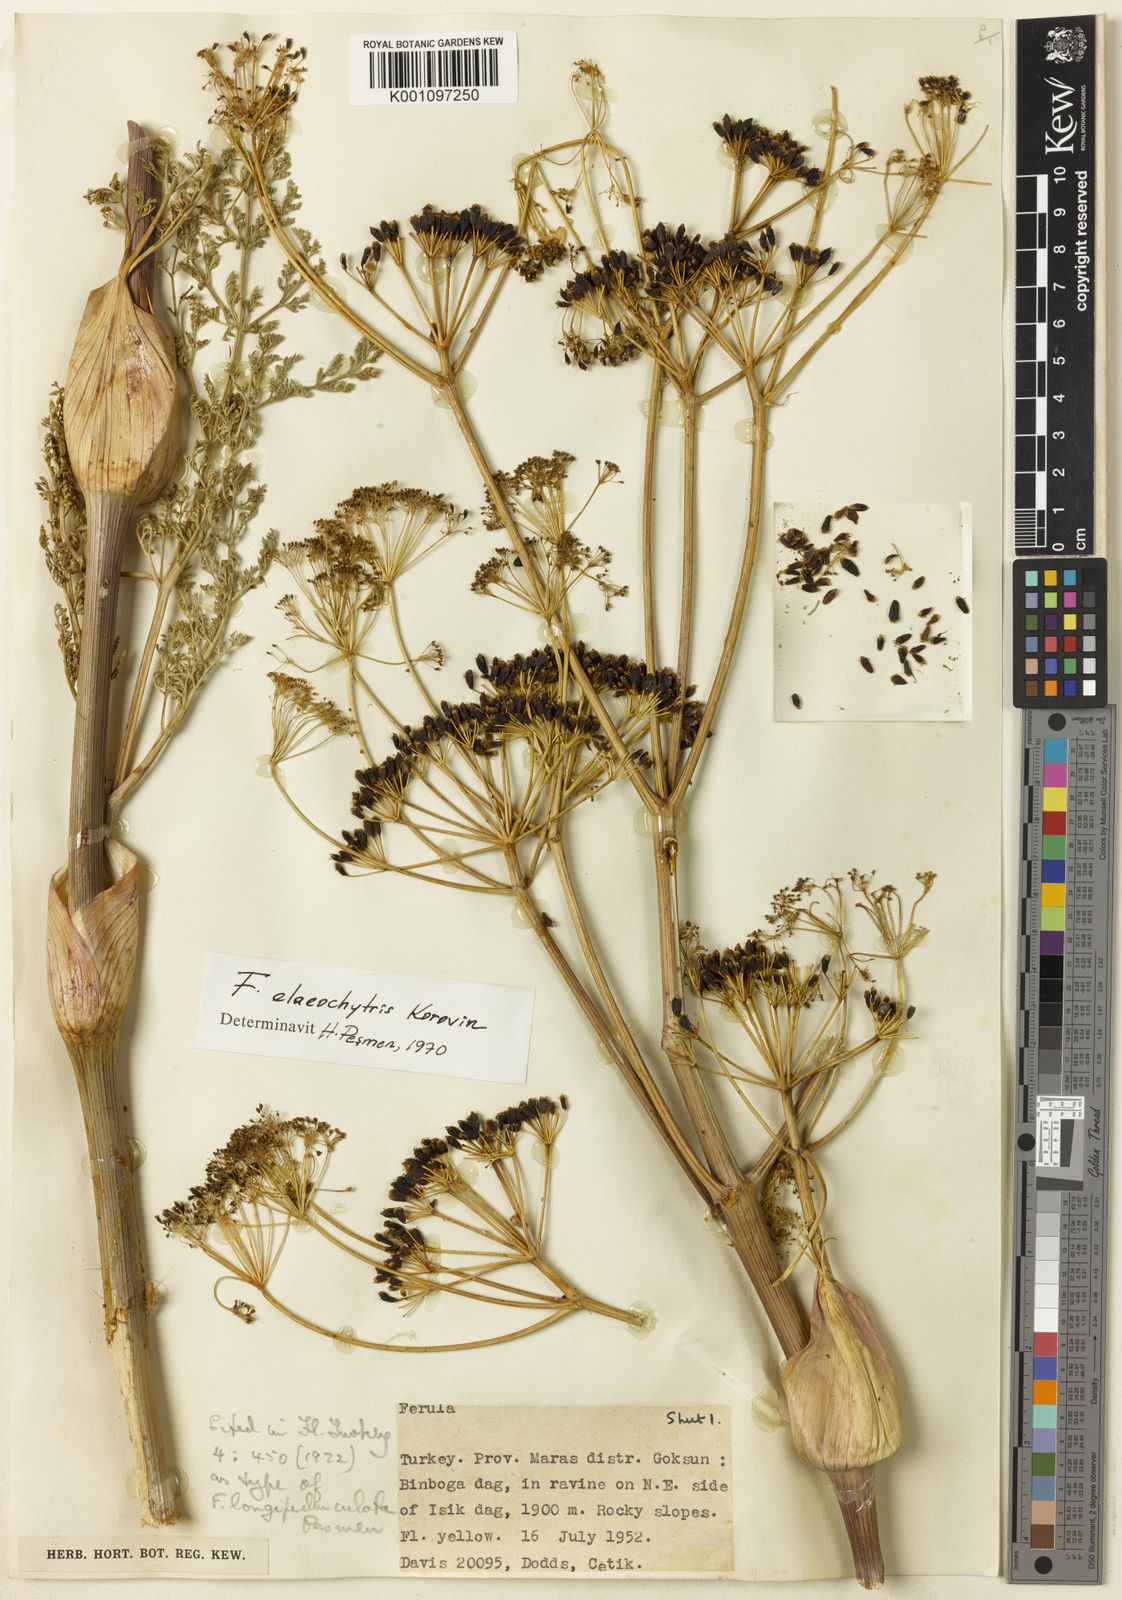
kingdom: Plantae
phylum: Tracheophyta
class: Magnoliopsida
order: Apiales
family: Apiaceae
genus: Ferula
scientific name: Ferula elaeochytris
